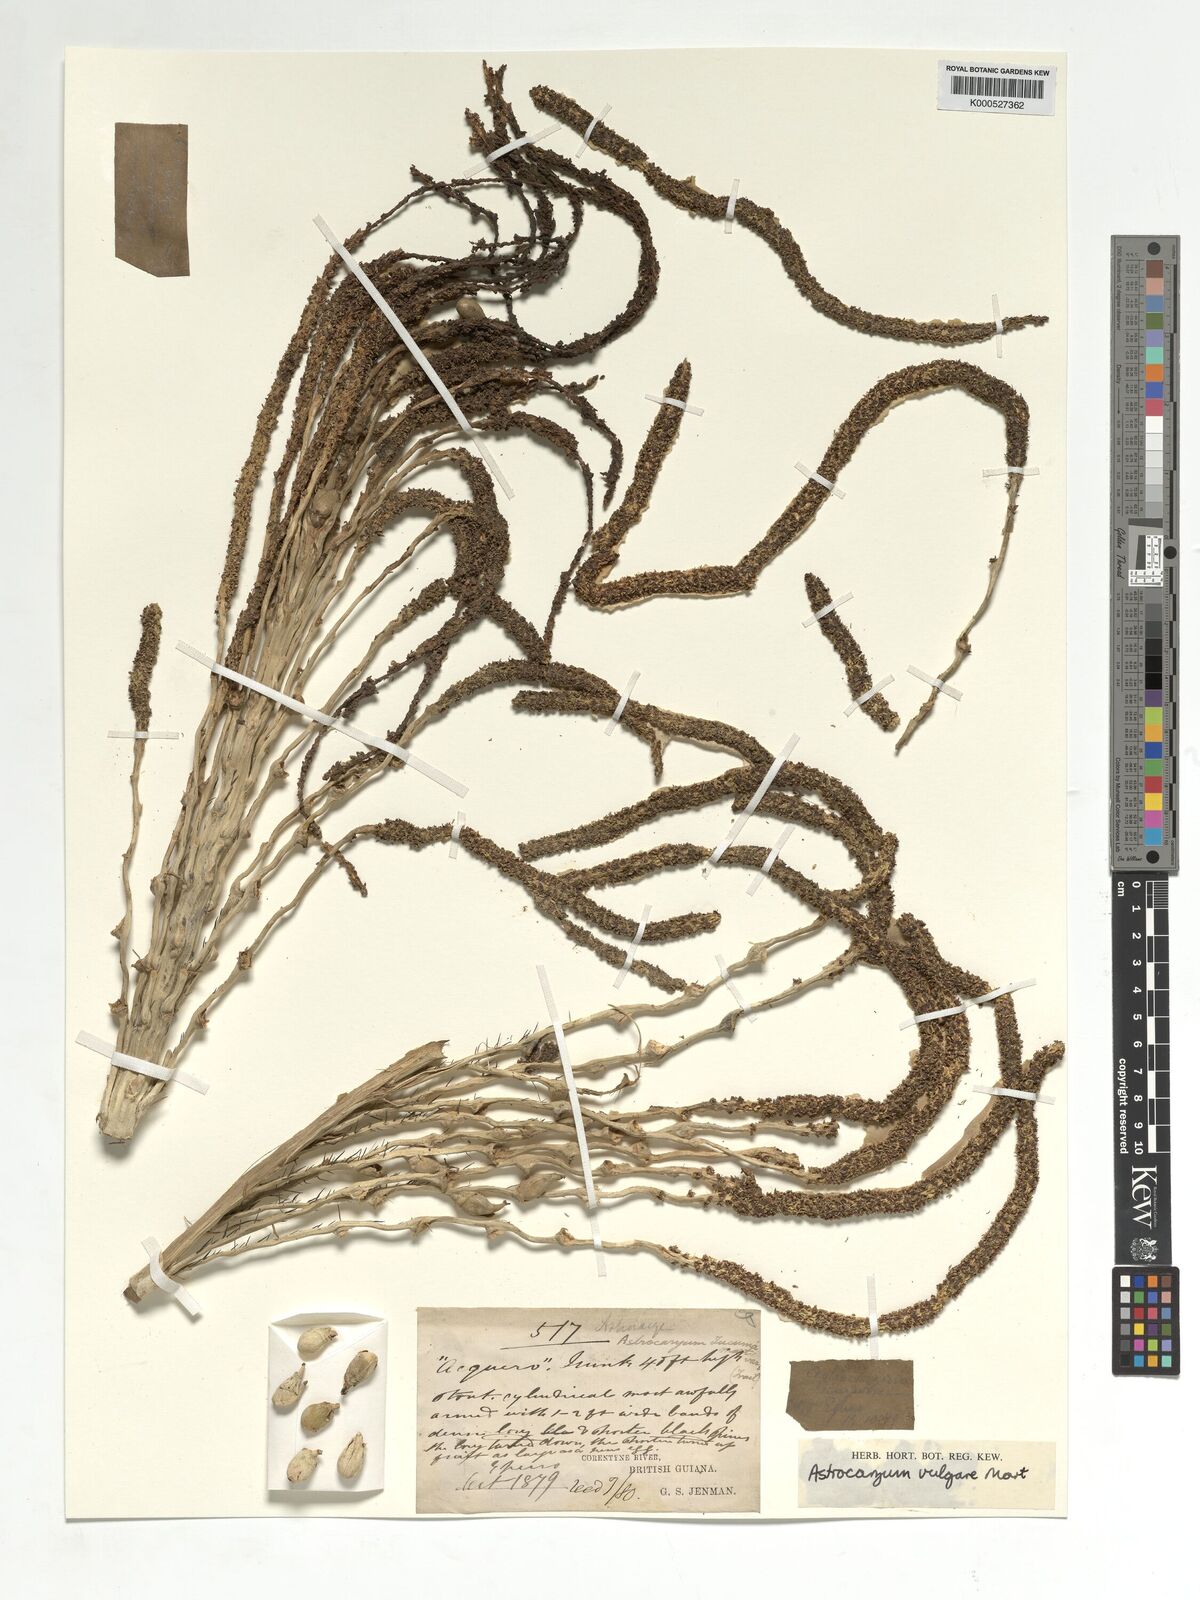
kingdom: Plantae
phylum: Tracheophyta
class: Liliopsida
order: Arecales
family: Arecaceae
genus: Astrocaryum
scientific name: Astrocaryum vulgare
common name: Tucum palm
